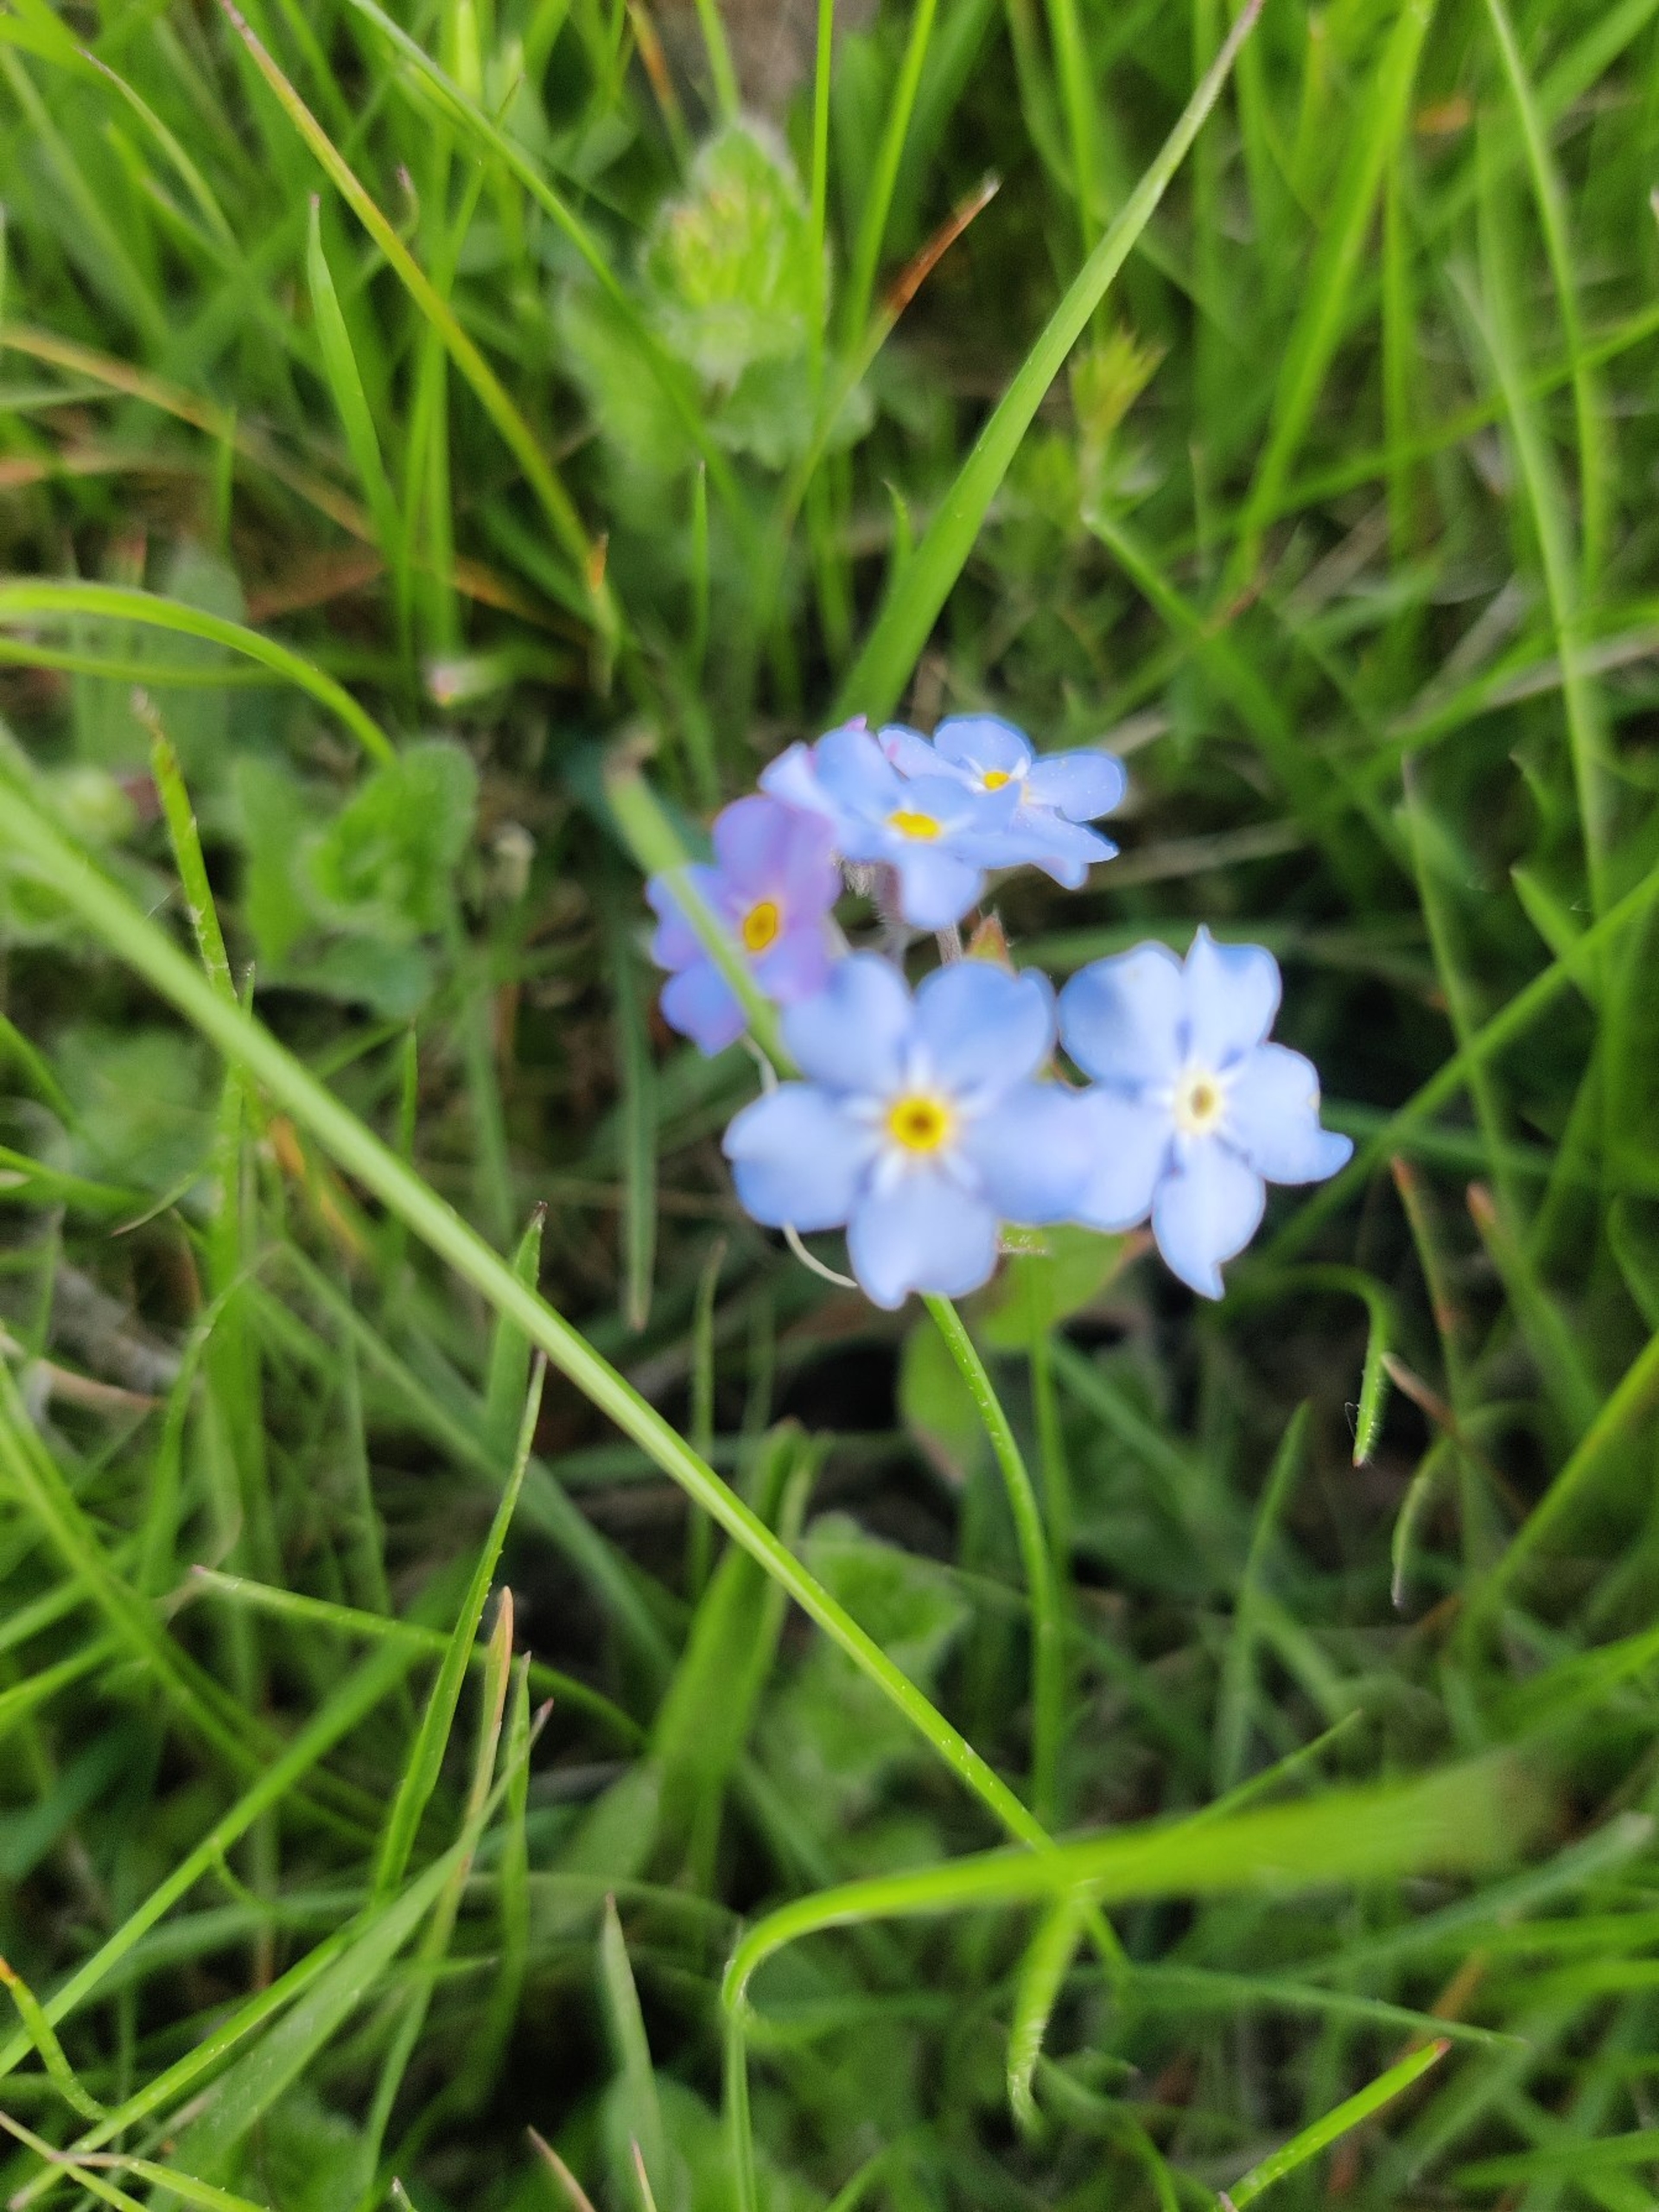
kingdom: Plantae
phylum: Tracheophyta
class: Magnoliopsida
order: Boraginales
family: Boraginaceae
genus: Myosotis
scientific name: Myosotis sylvatica
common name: Skov-forglemmigej
